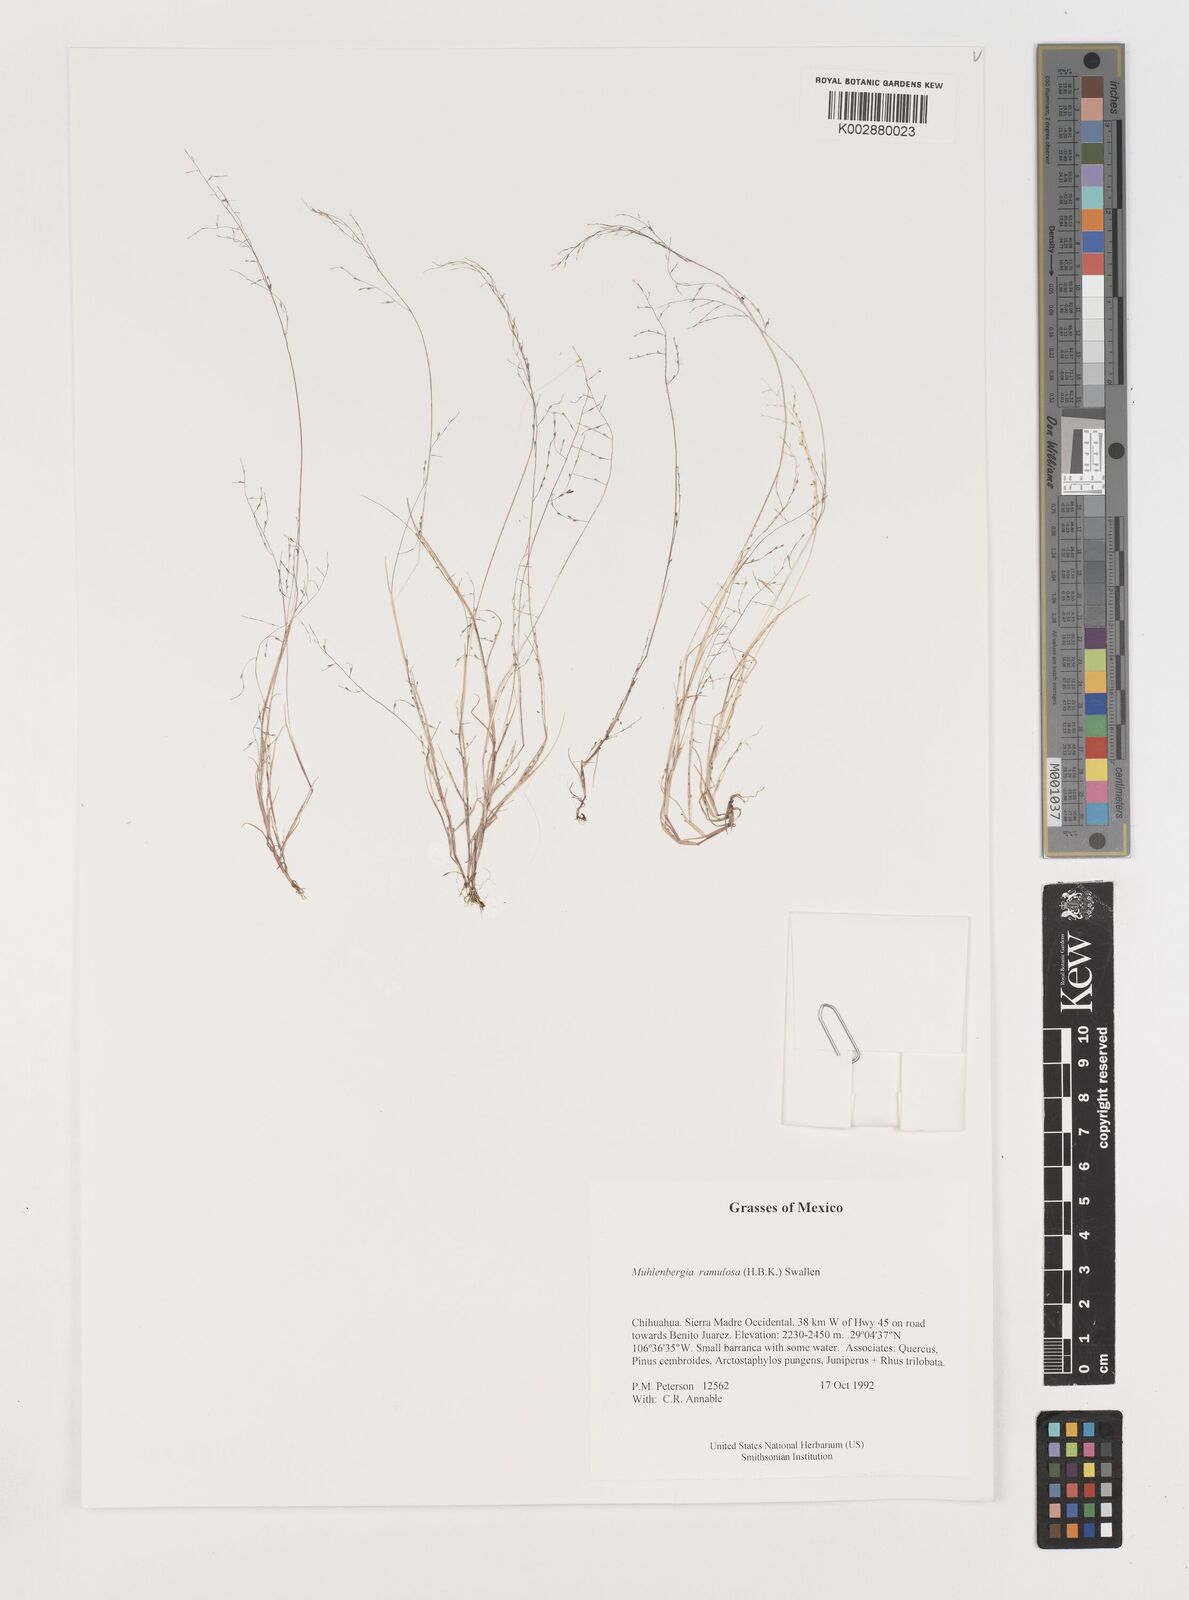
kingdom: Plantae
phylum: Tracheophyta
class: Liliopsida
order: Poales
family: Poaceae
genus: Muhlenbergia
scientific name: Muhlenbergia ramulosa
